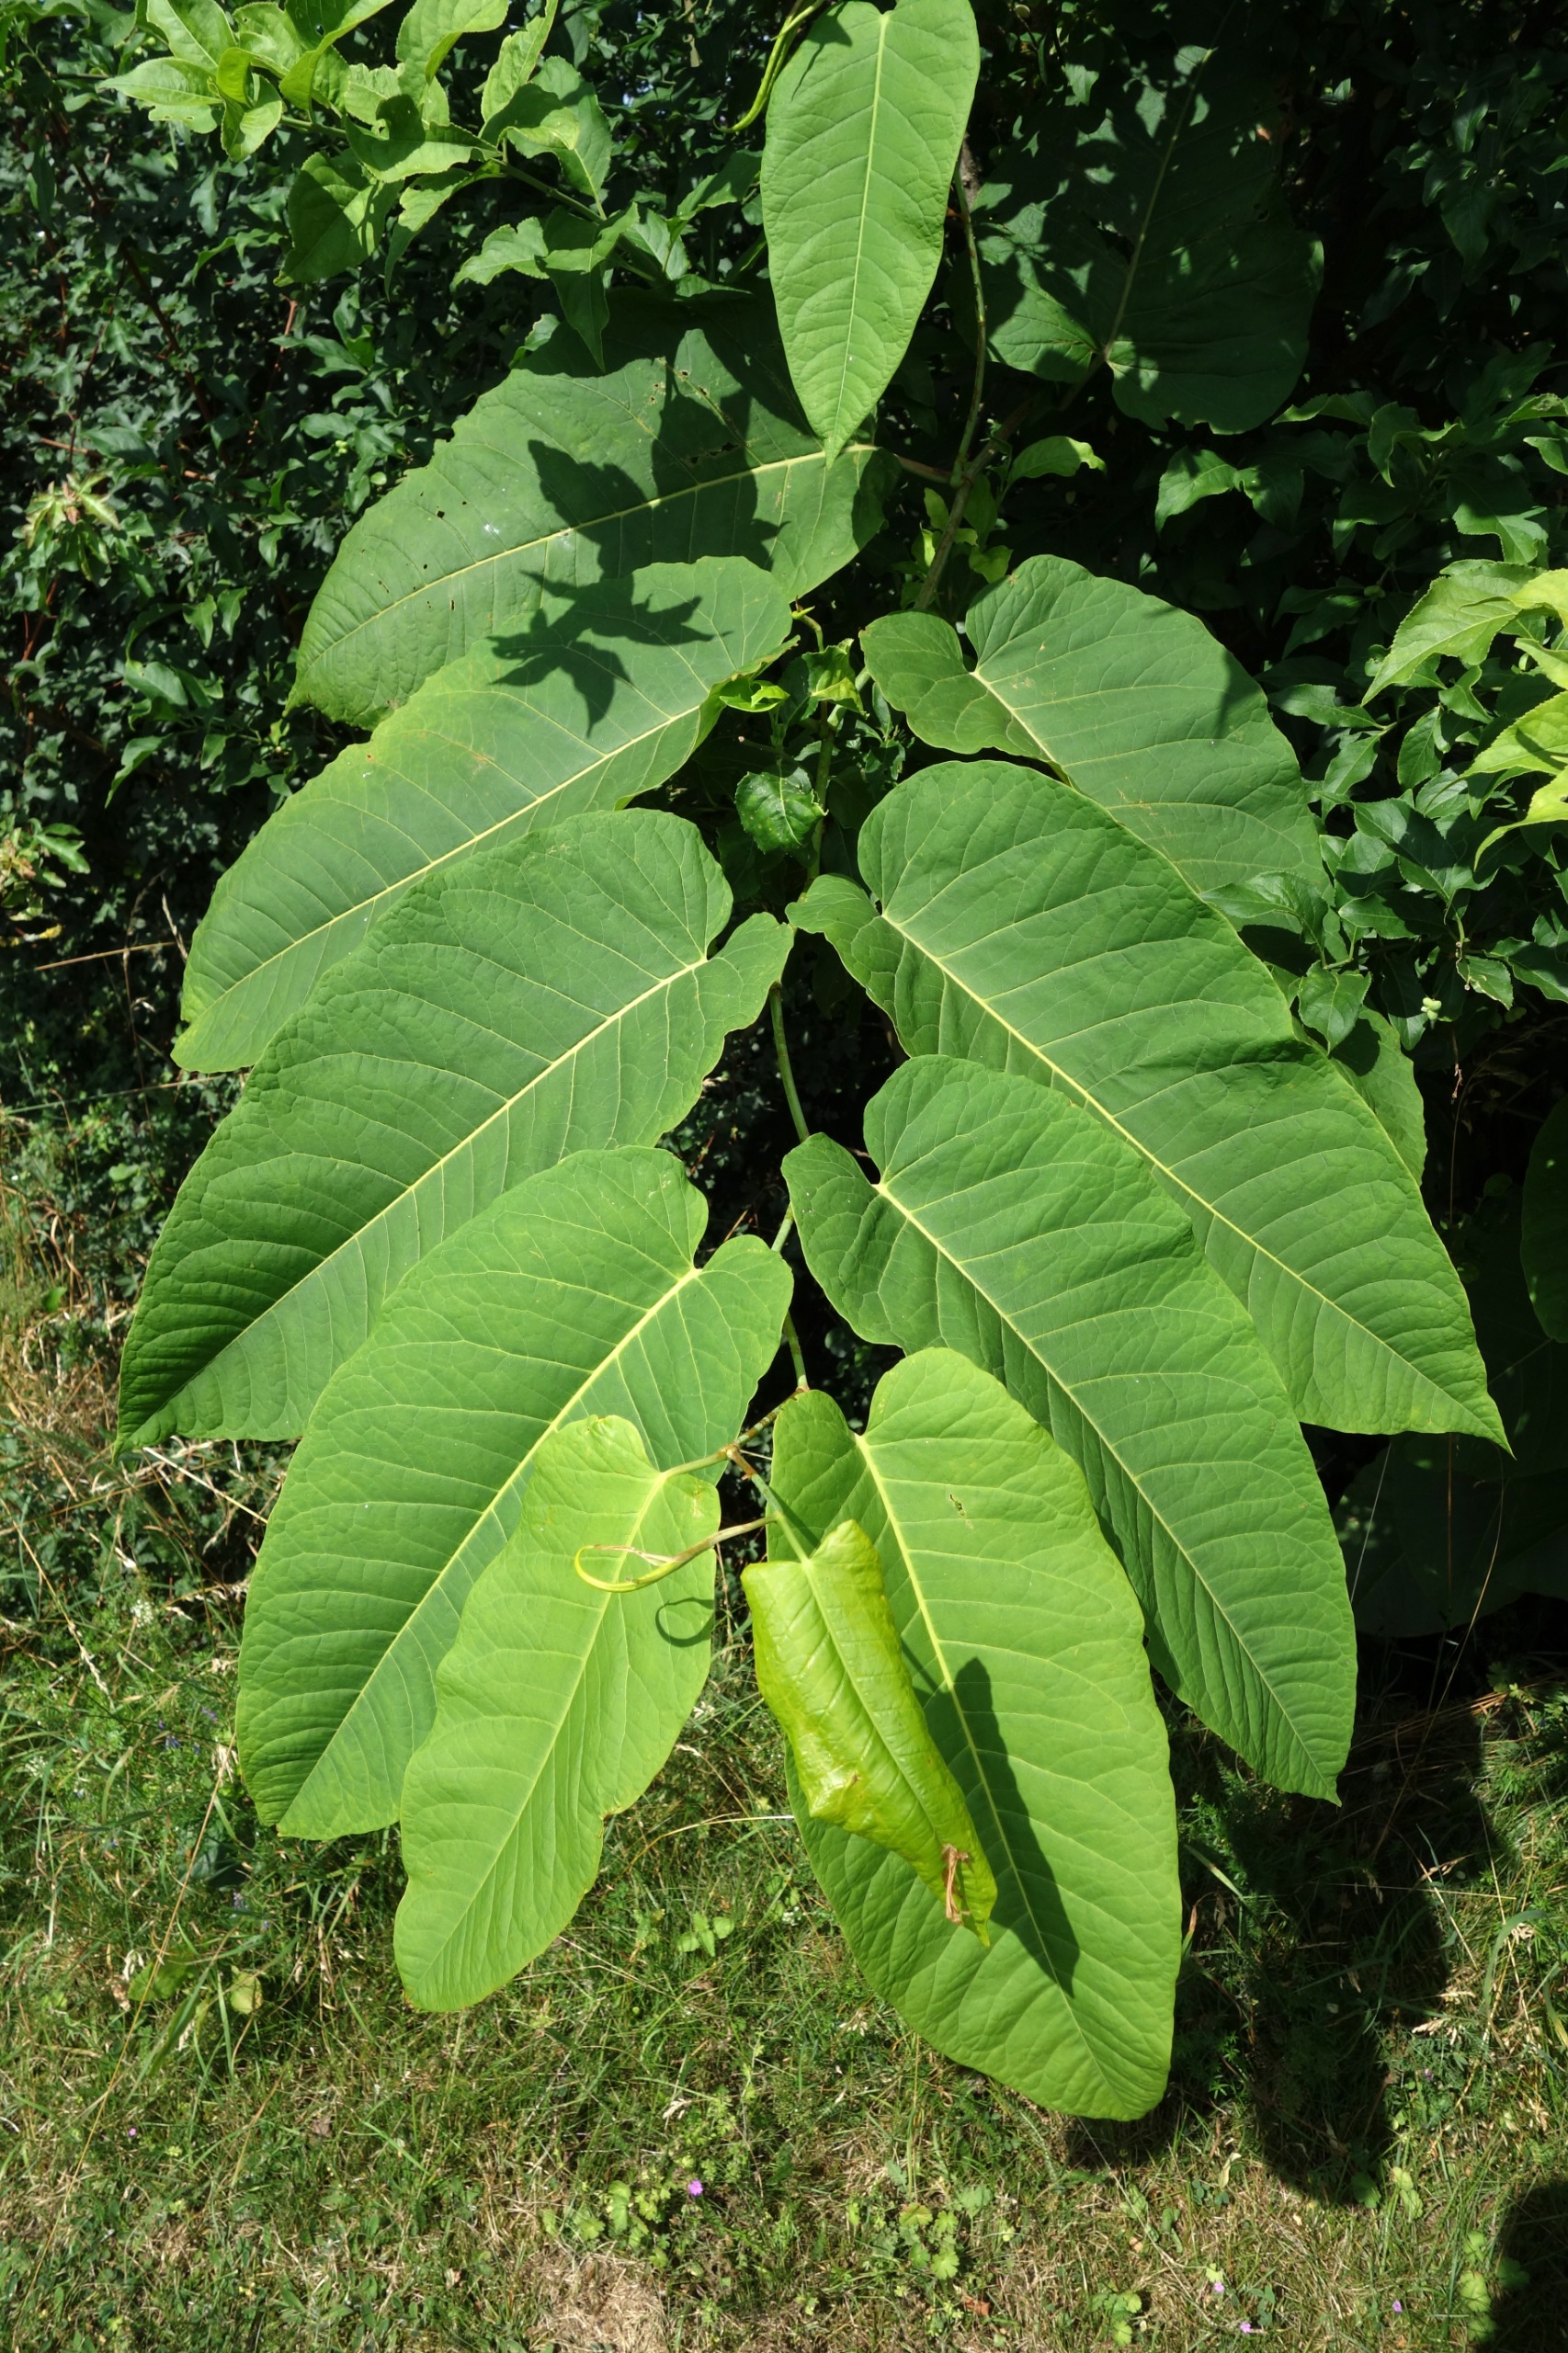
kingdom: Plantae
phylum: Tracheophyta
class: Magnoliopsida
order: Caryophyllales
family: Polygonaceae
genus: Reynoutria
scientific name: Reynoutria sachalinensis
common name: Kæmpe-pileurt
